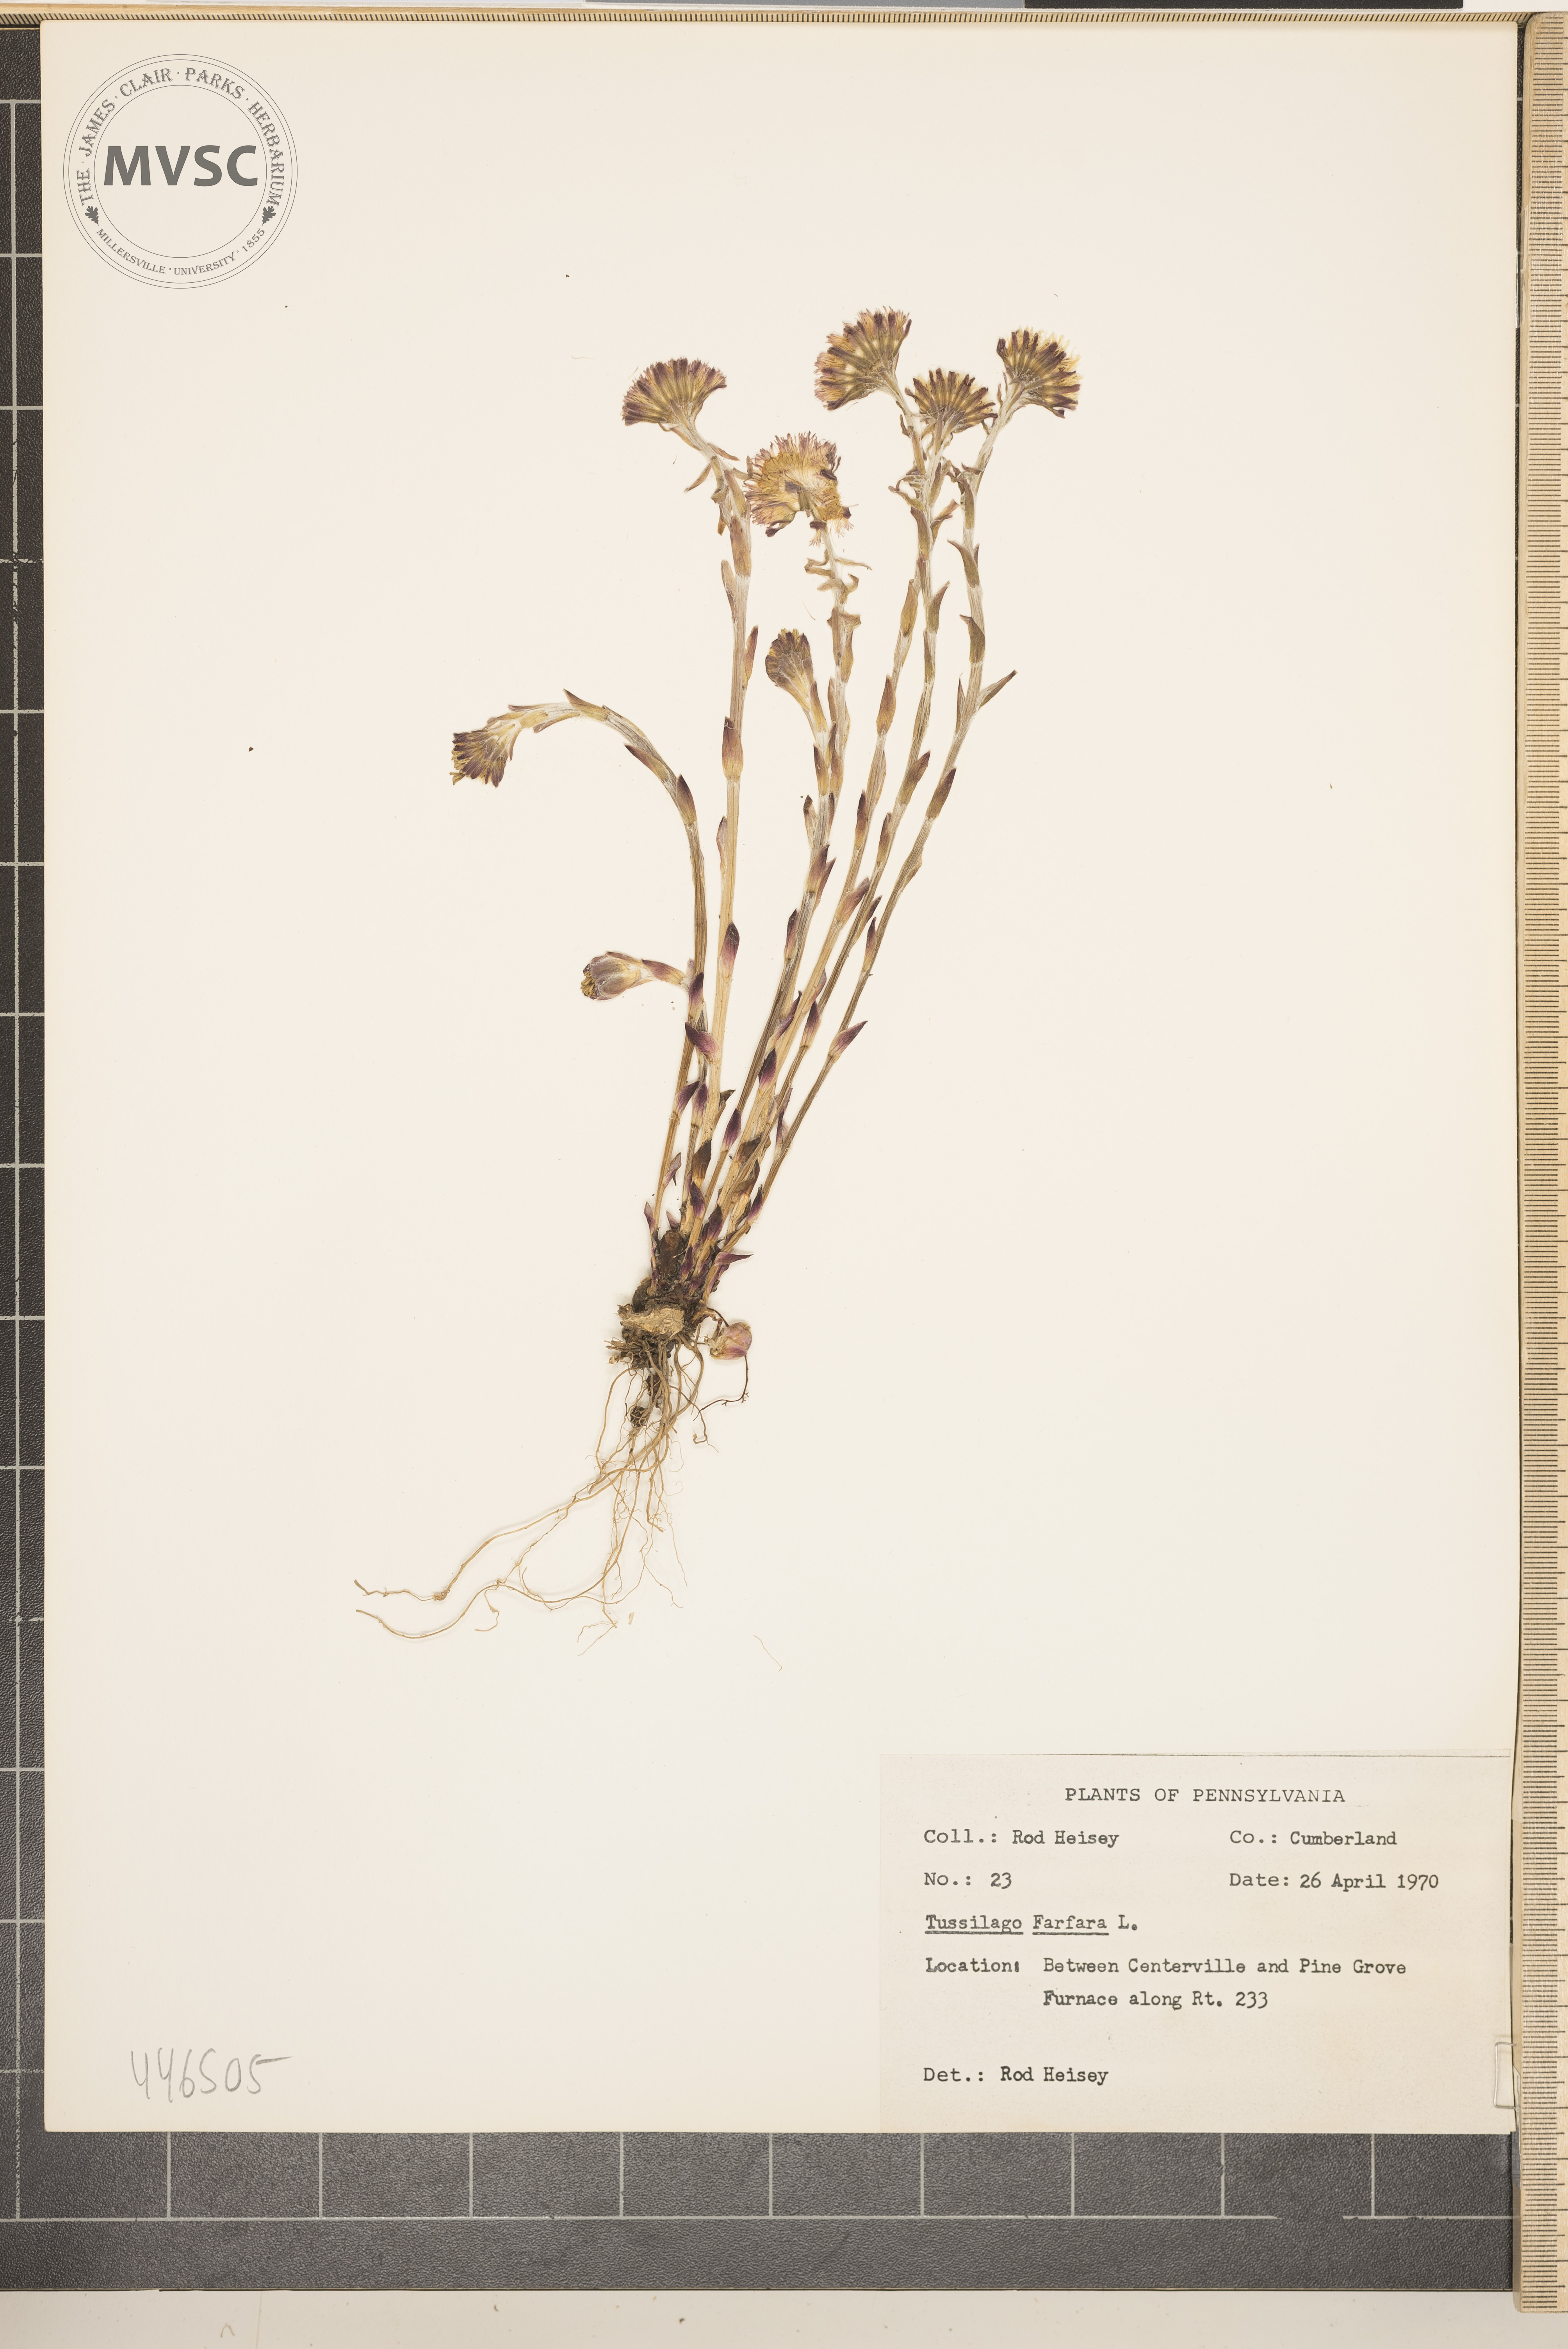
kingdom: Plantae
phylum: Tracheophyta
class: Magnoliopsida
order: Asterales
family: Asteraceae
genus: Tussilago
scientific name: Tussilago farfara
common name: Coltsfoot
